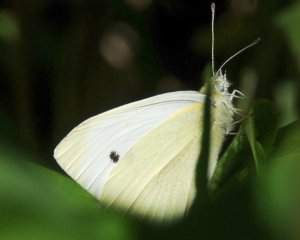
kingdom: Animalia
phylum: Arthropoda
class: Insecta
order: Lepidoptera
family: Pieridae
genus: Pieris
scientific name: Pieris rapae
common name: Cabbage White
